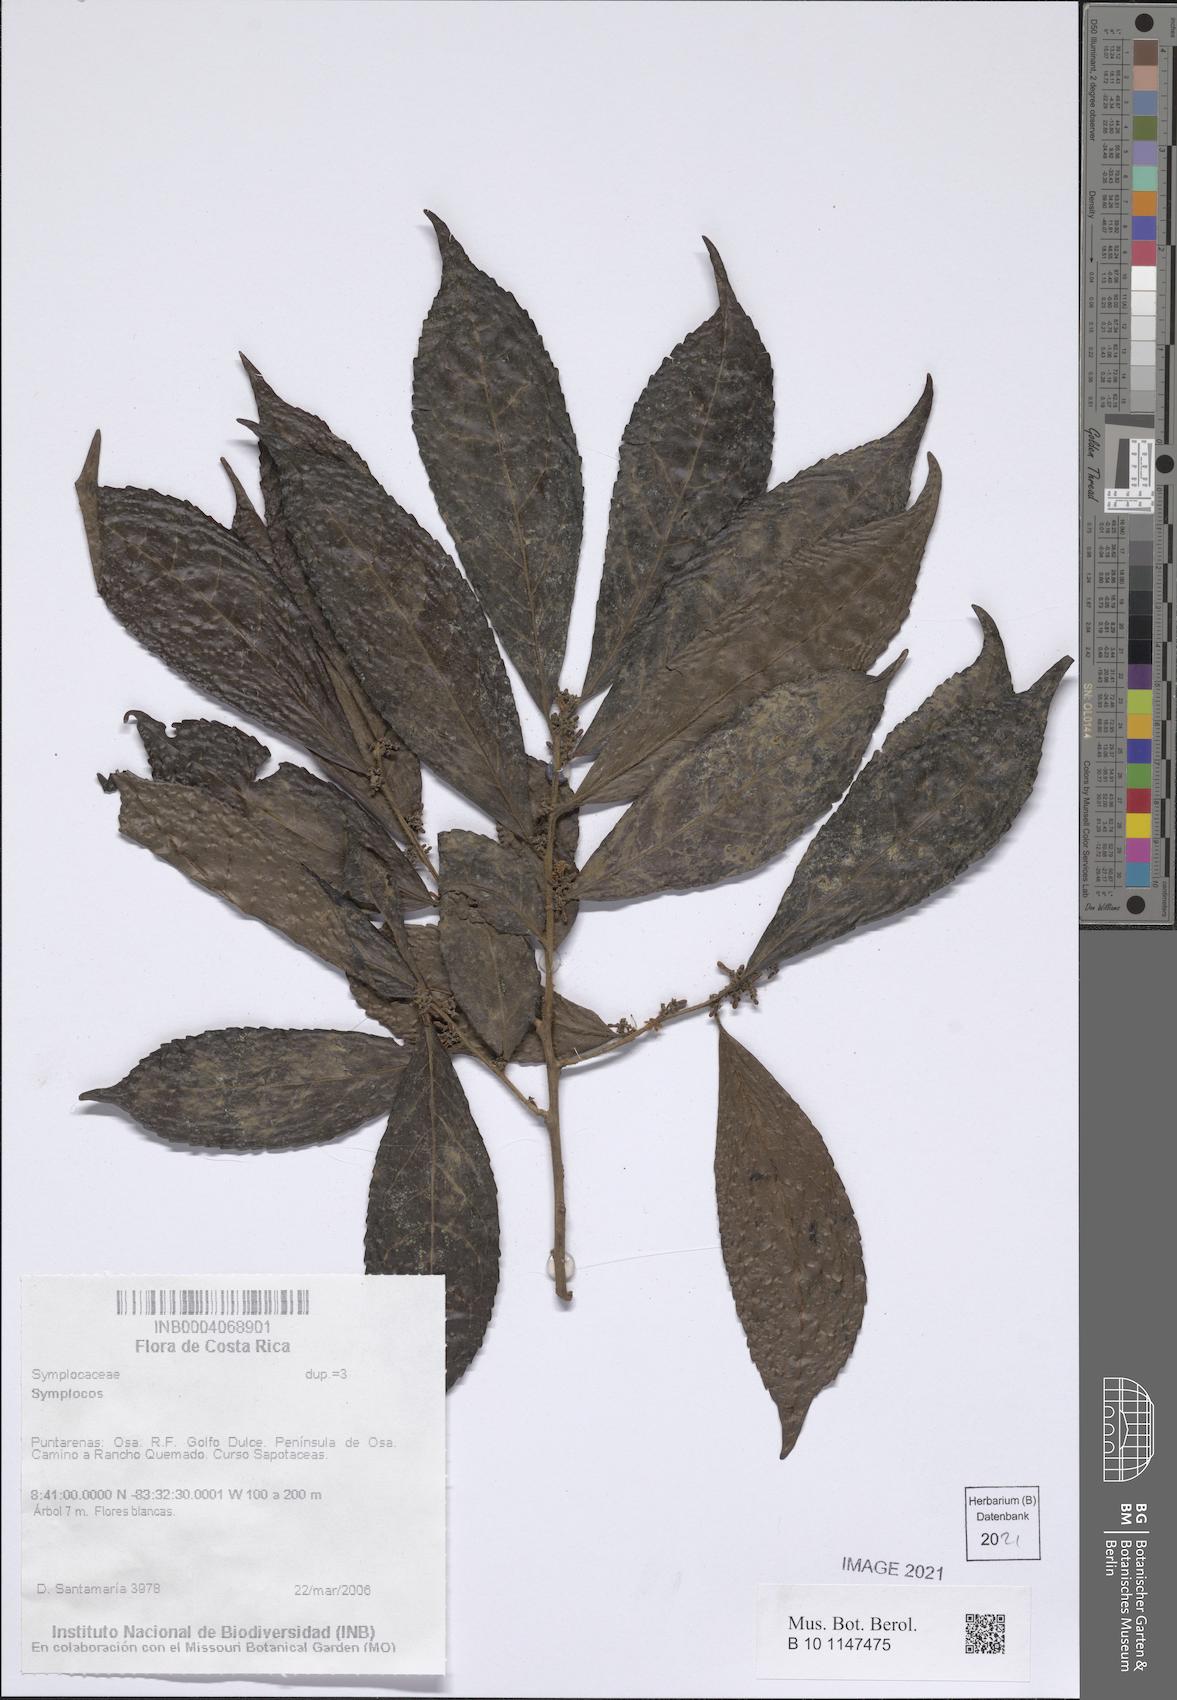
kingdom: Plantae
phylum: Tracheophyta
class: Magnoliopsida
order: Ericales
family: Symplocaceae
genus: Symplocos
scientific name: Symplocos
